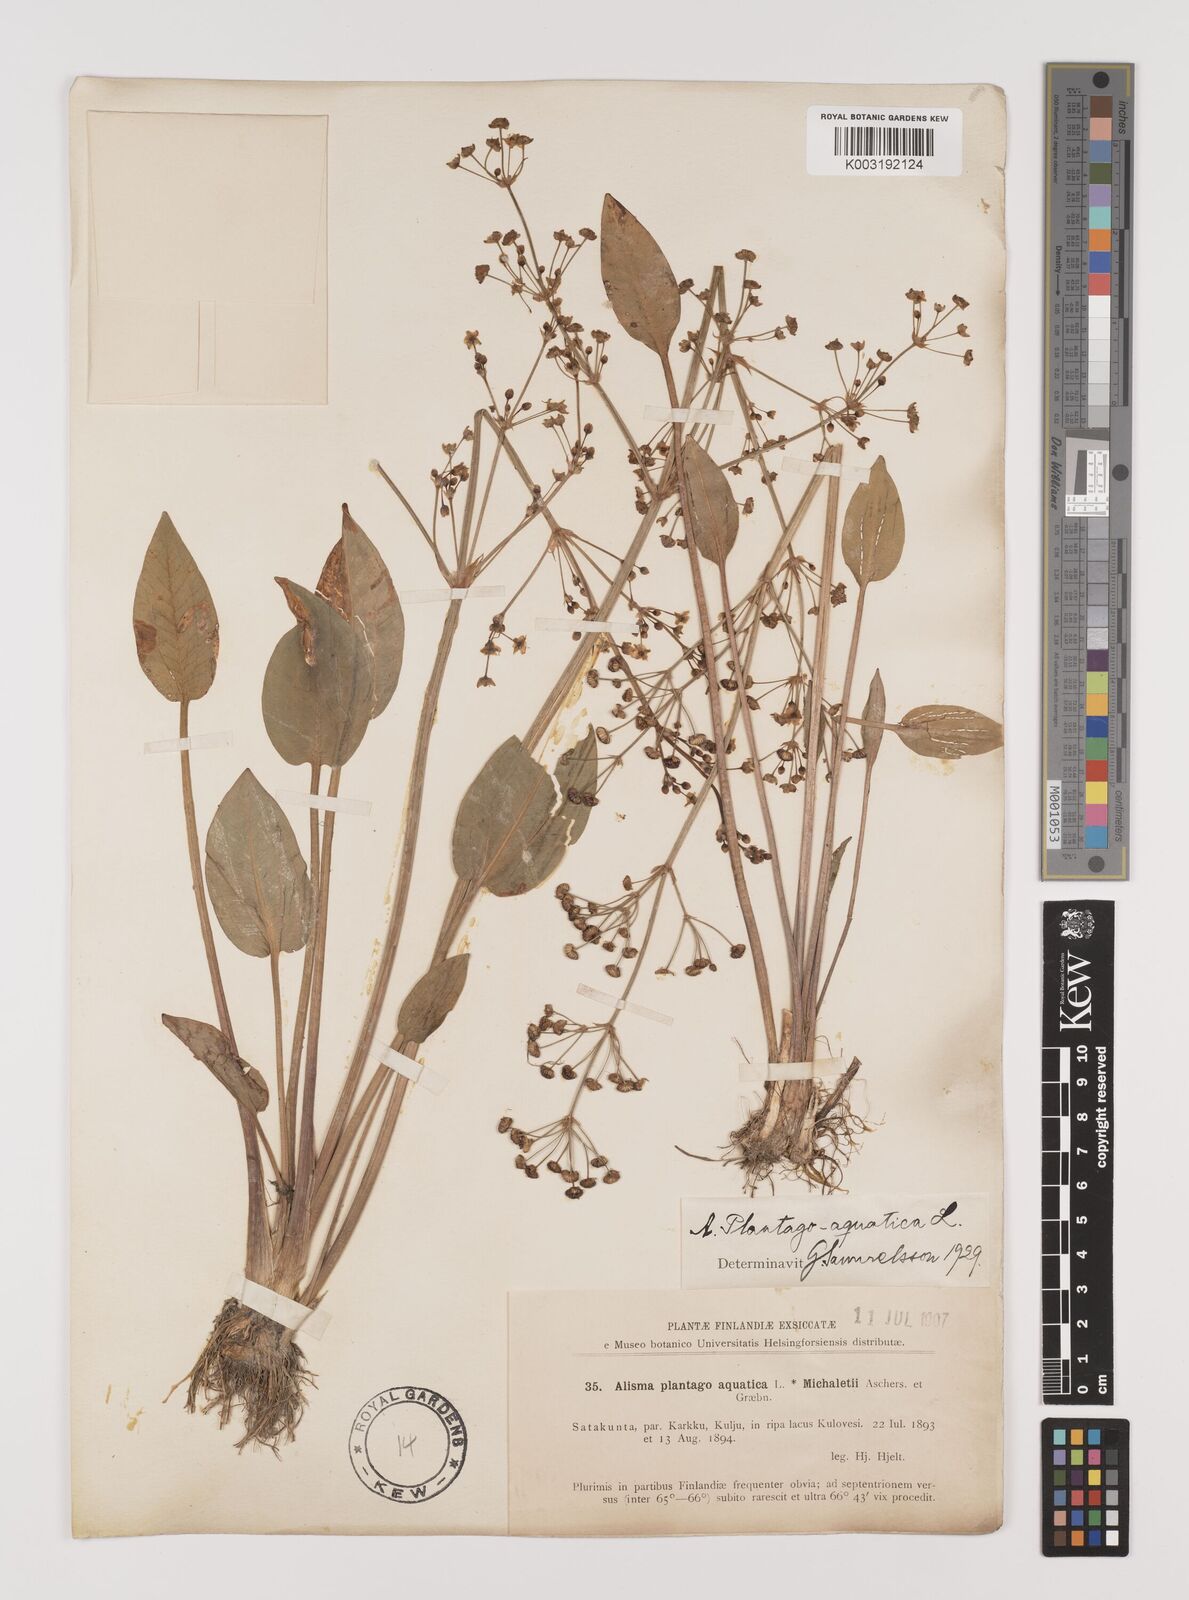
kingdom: Plantae
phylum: Tracheophyta
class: Liliopsida
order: Alismatales
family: Alismataceae
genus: Alisma
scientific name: Alisma plantago-aquatica
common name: Water-plantain
